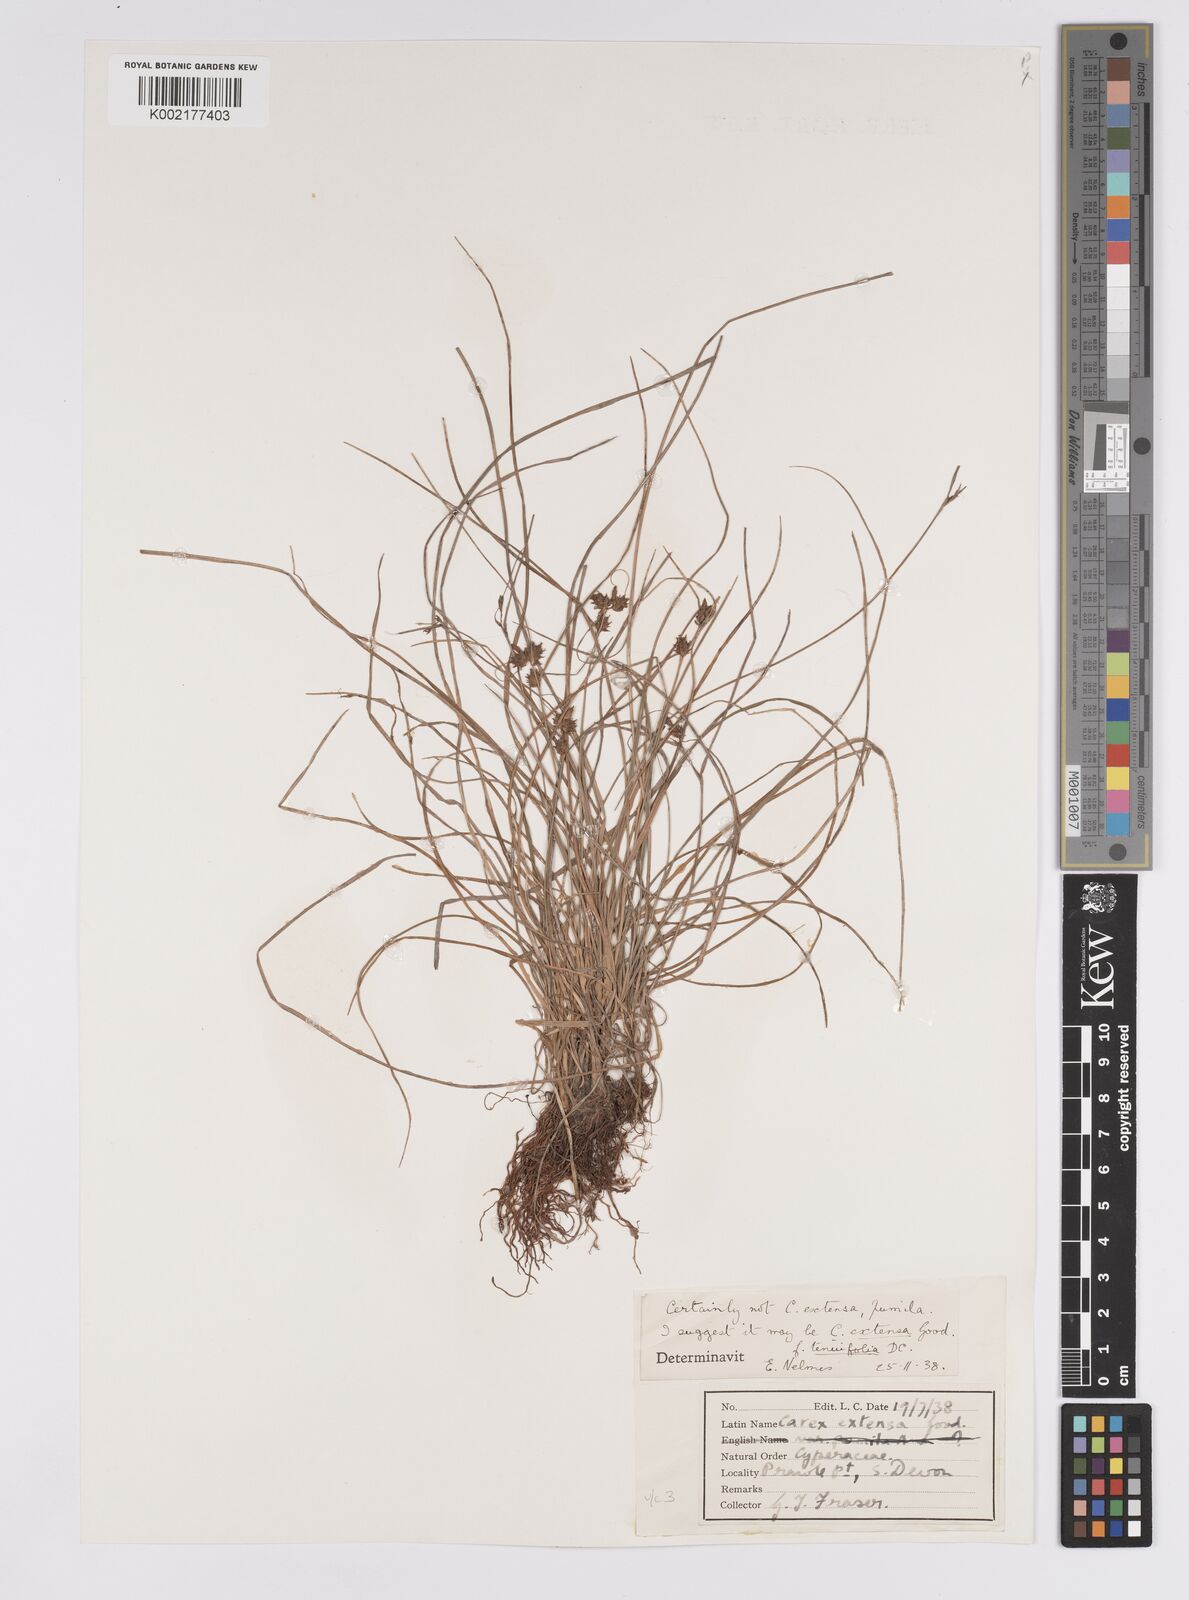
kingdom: Plantae
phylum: Tracheophyta
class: Liliopsida
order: Poales
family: Cyperaceae
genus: Carex
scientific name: Carex extensa
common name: Long-bracted sedge
